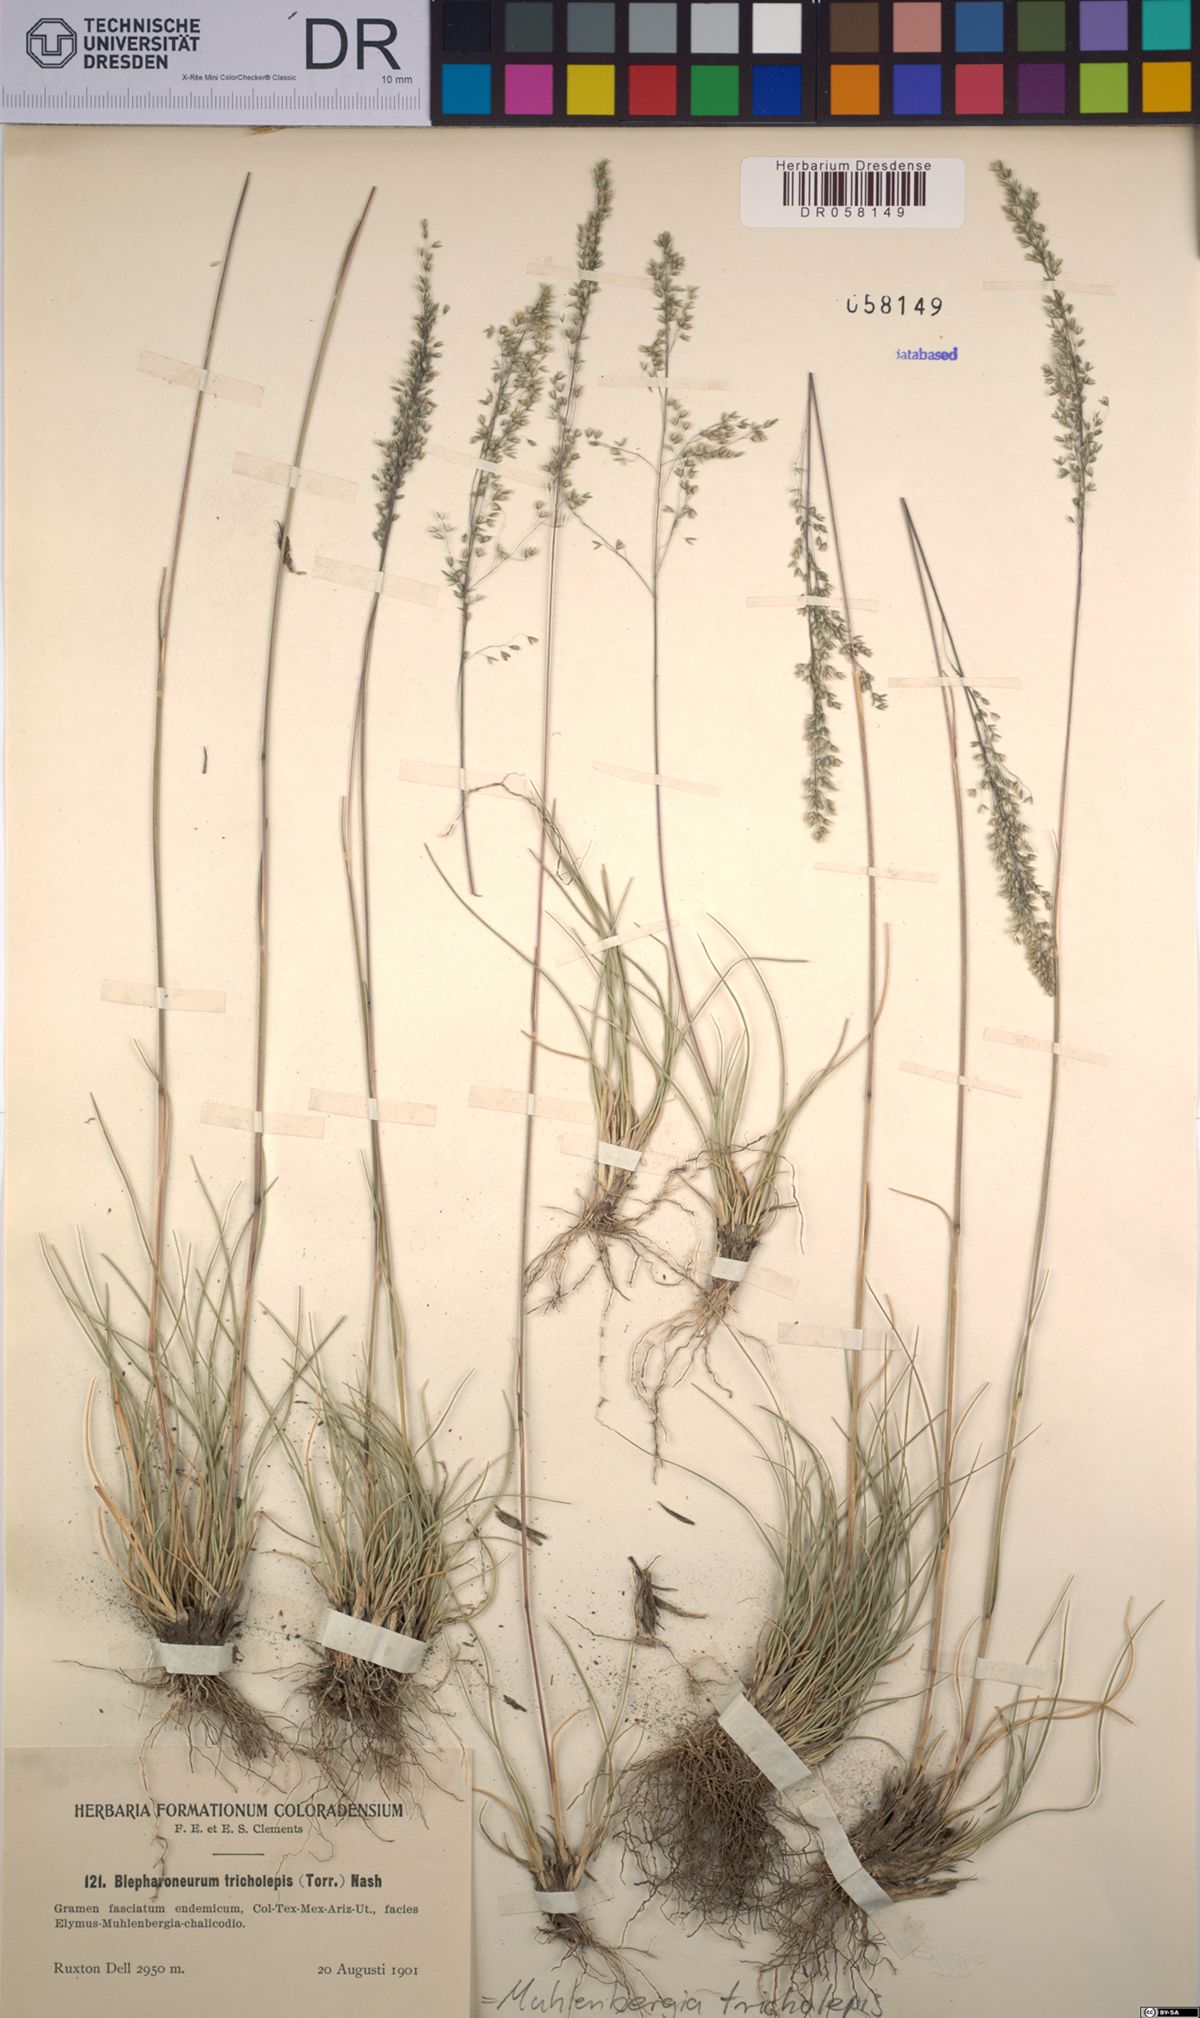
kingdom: Plantae
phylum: Tracheophyta
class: Liliopsida
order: Poales
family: Poaceae
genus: Muhlenbergia
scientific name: Muhlenbergia tricholepis
